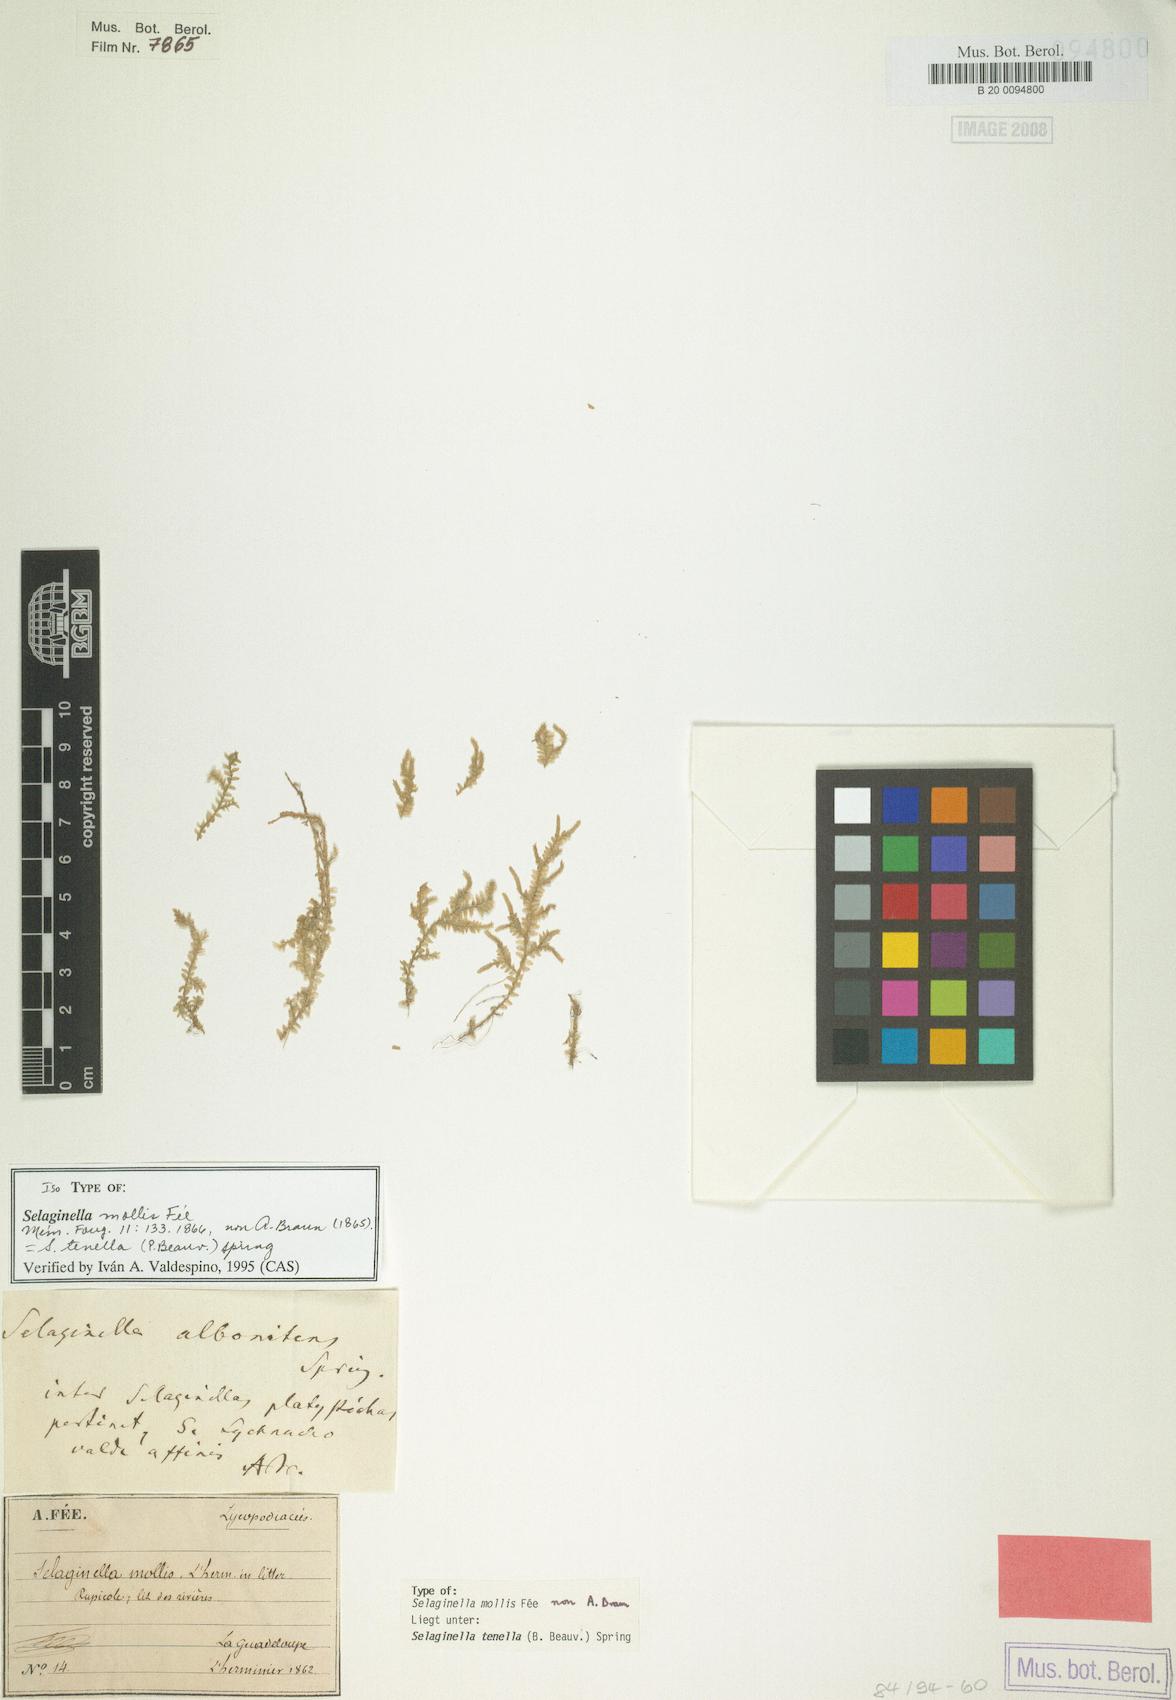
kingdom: Plantae
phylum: Tracheophyta
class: Lycopodiopsida
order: Selaginellales
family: Selaginellaceae
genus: Selaginella
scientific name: Selaginella tenella
